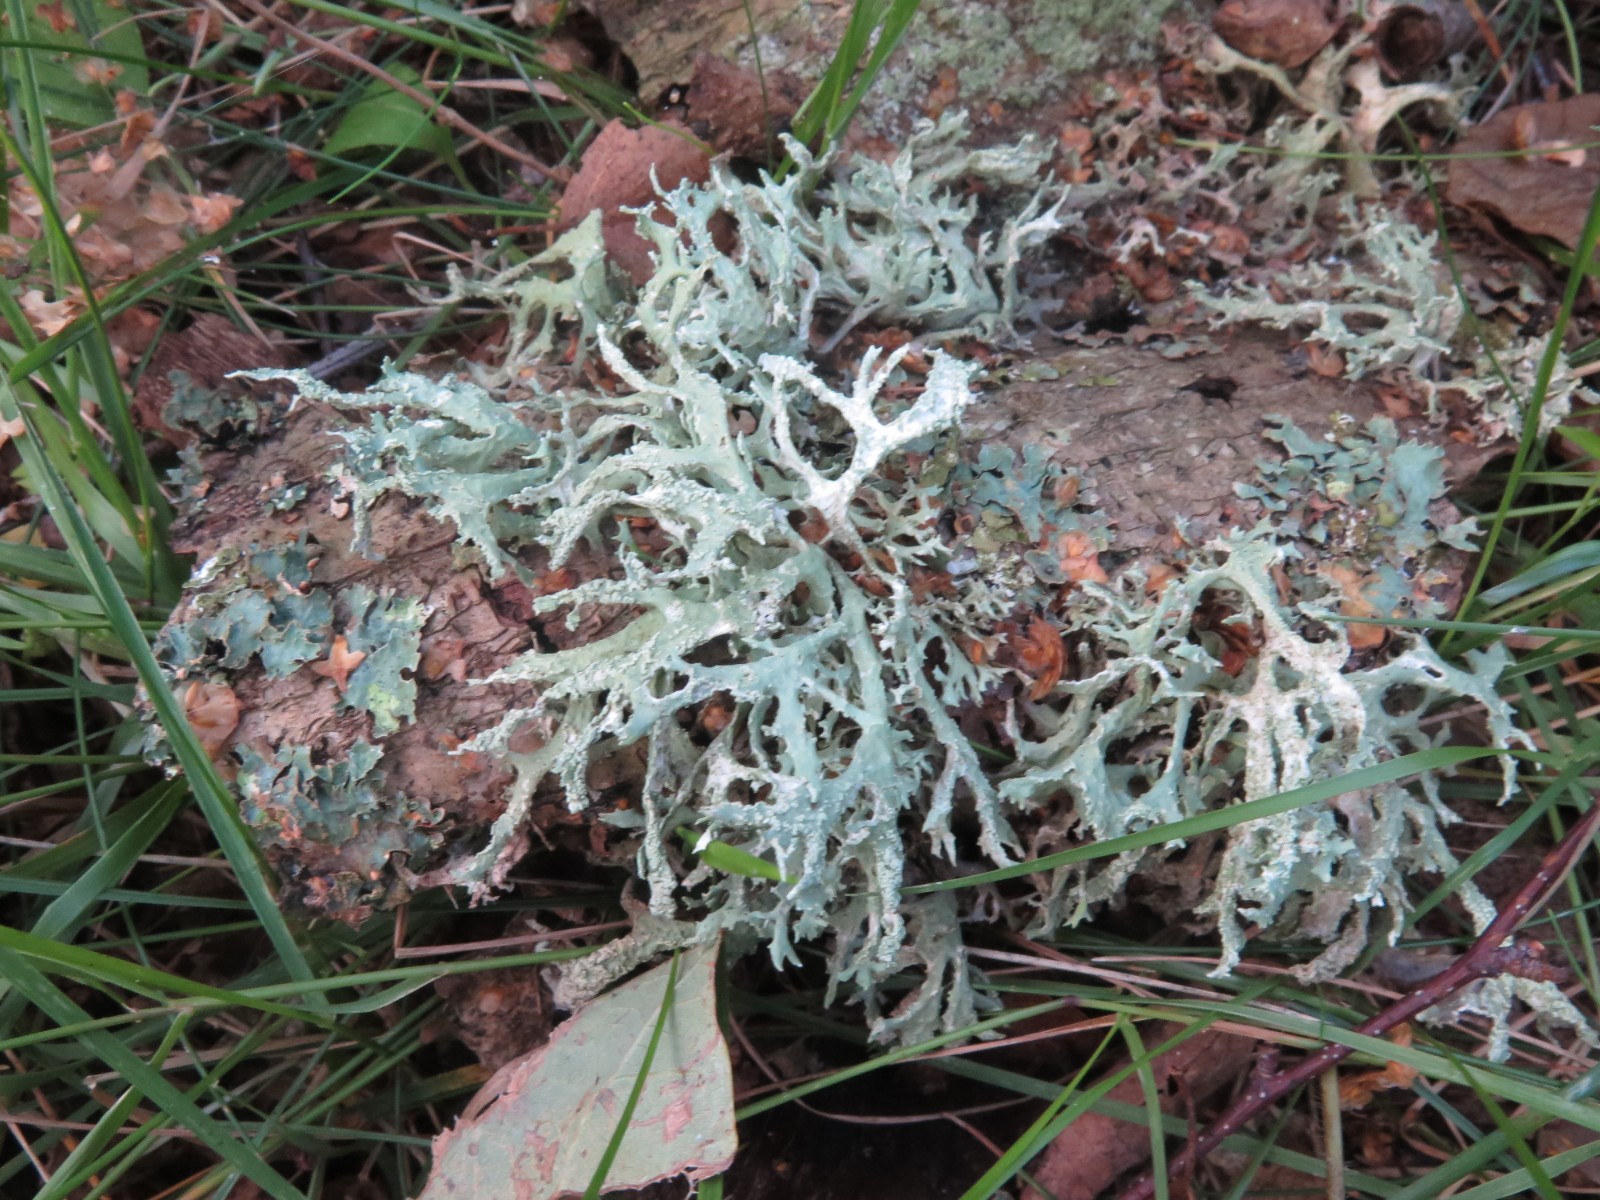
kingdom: Fungi
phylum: Ascomycota
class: Lecanoromycetes
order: Lecanorales
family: Parmeliaceae
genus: Evernia
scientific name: Evernia prunastri
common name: almindelig slåenlav
